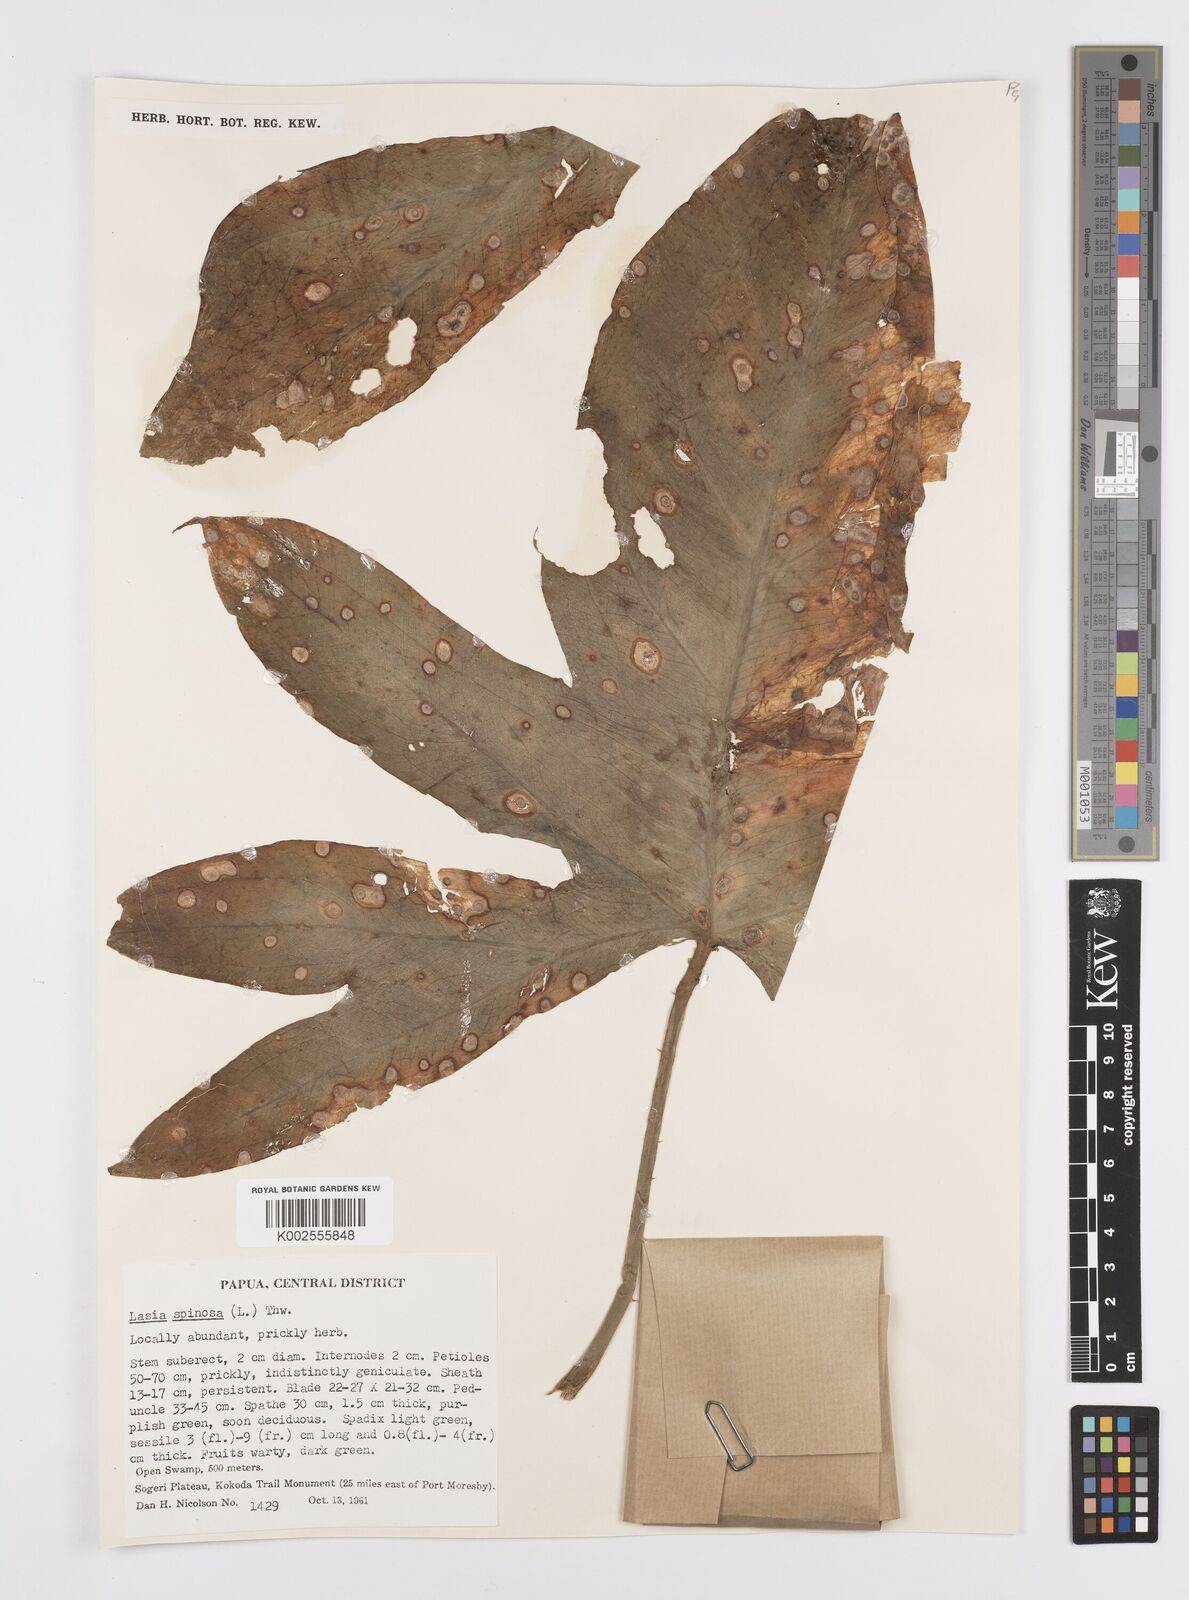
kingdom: Plantae
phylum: Tracheophyta
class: Liliopsida
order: Alismatales
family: Araceae
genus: Lasia
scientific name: Lasia spinosa
